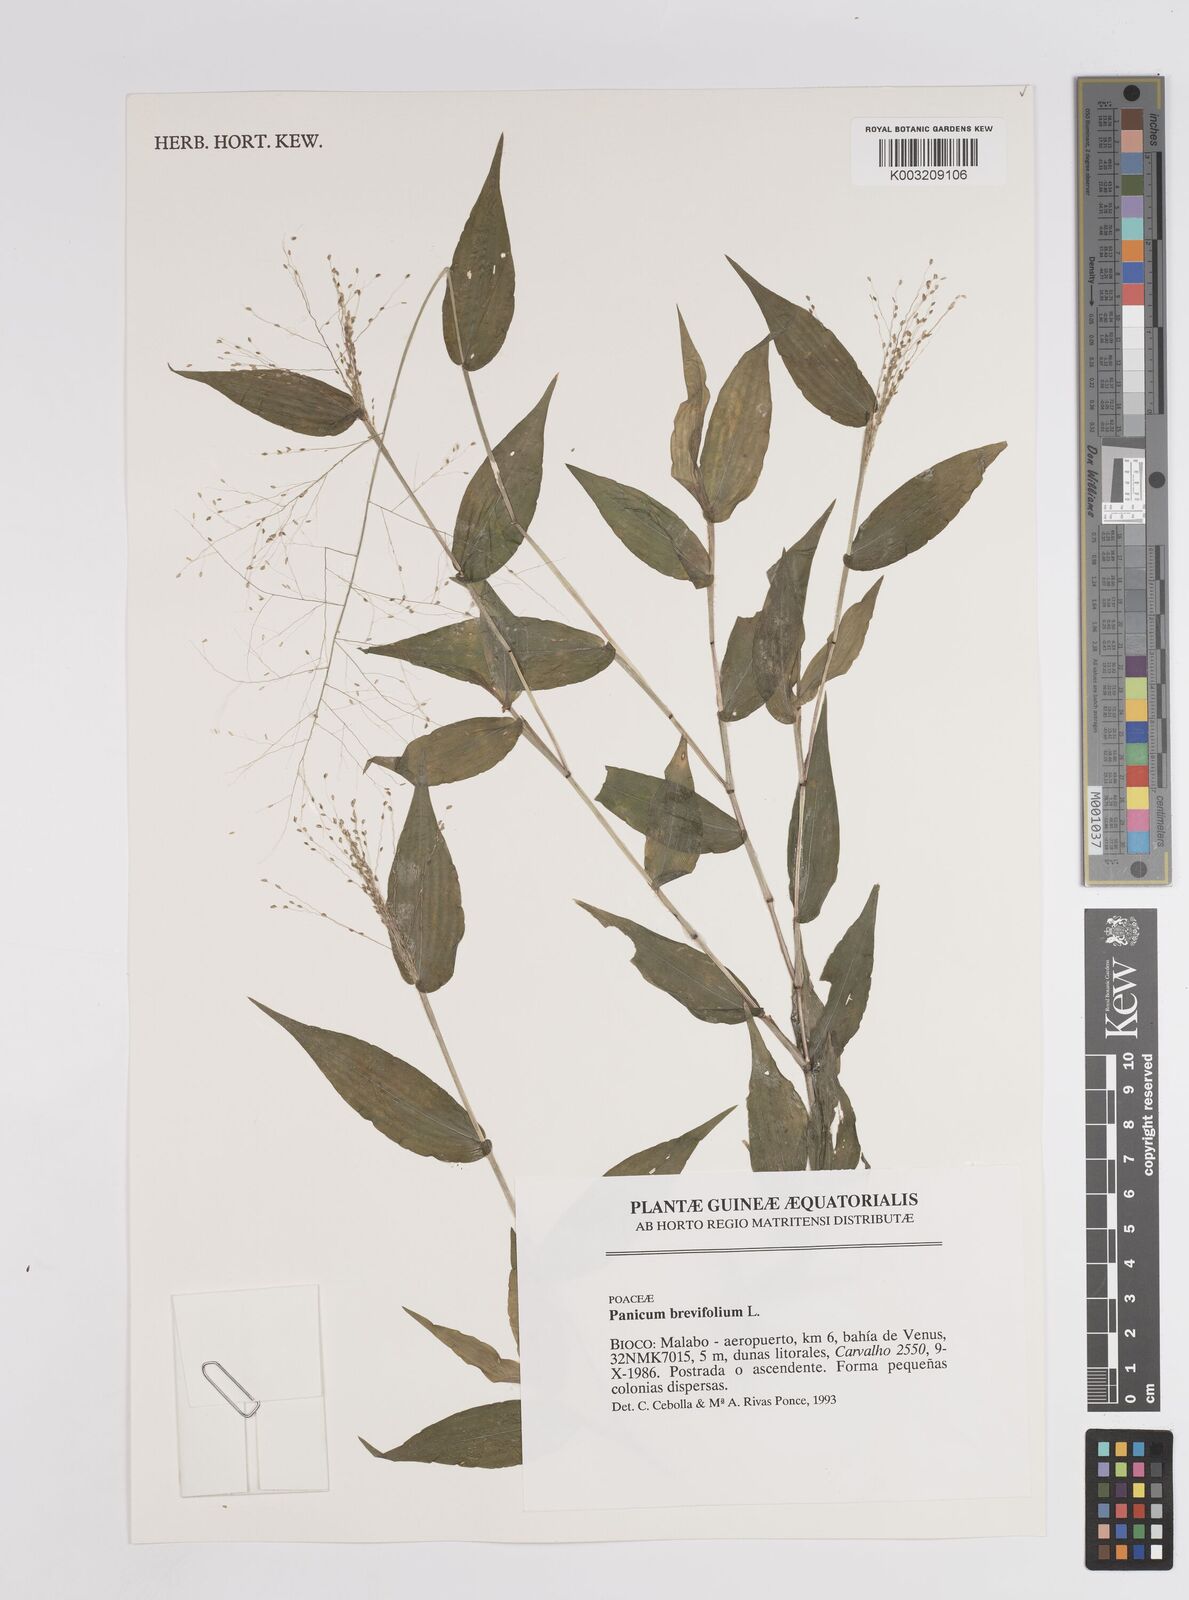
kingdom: Plantae
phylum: Tracheophyta
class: Liliopsida
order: Poales
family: Poaceae
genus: Panicum
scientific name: Panicum brevifolium
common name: Shortleaf panic grass
